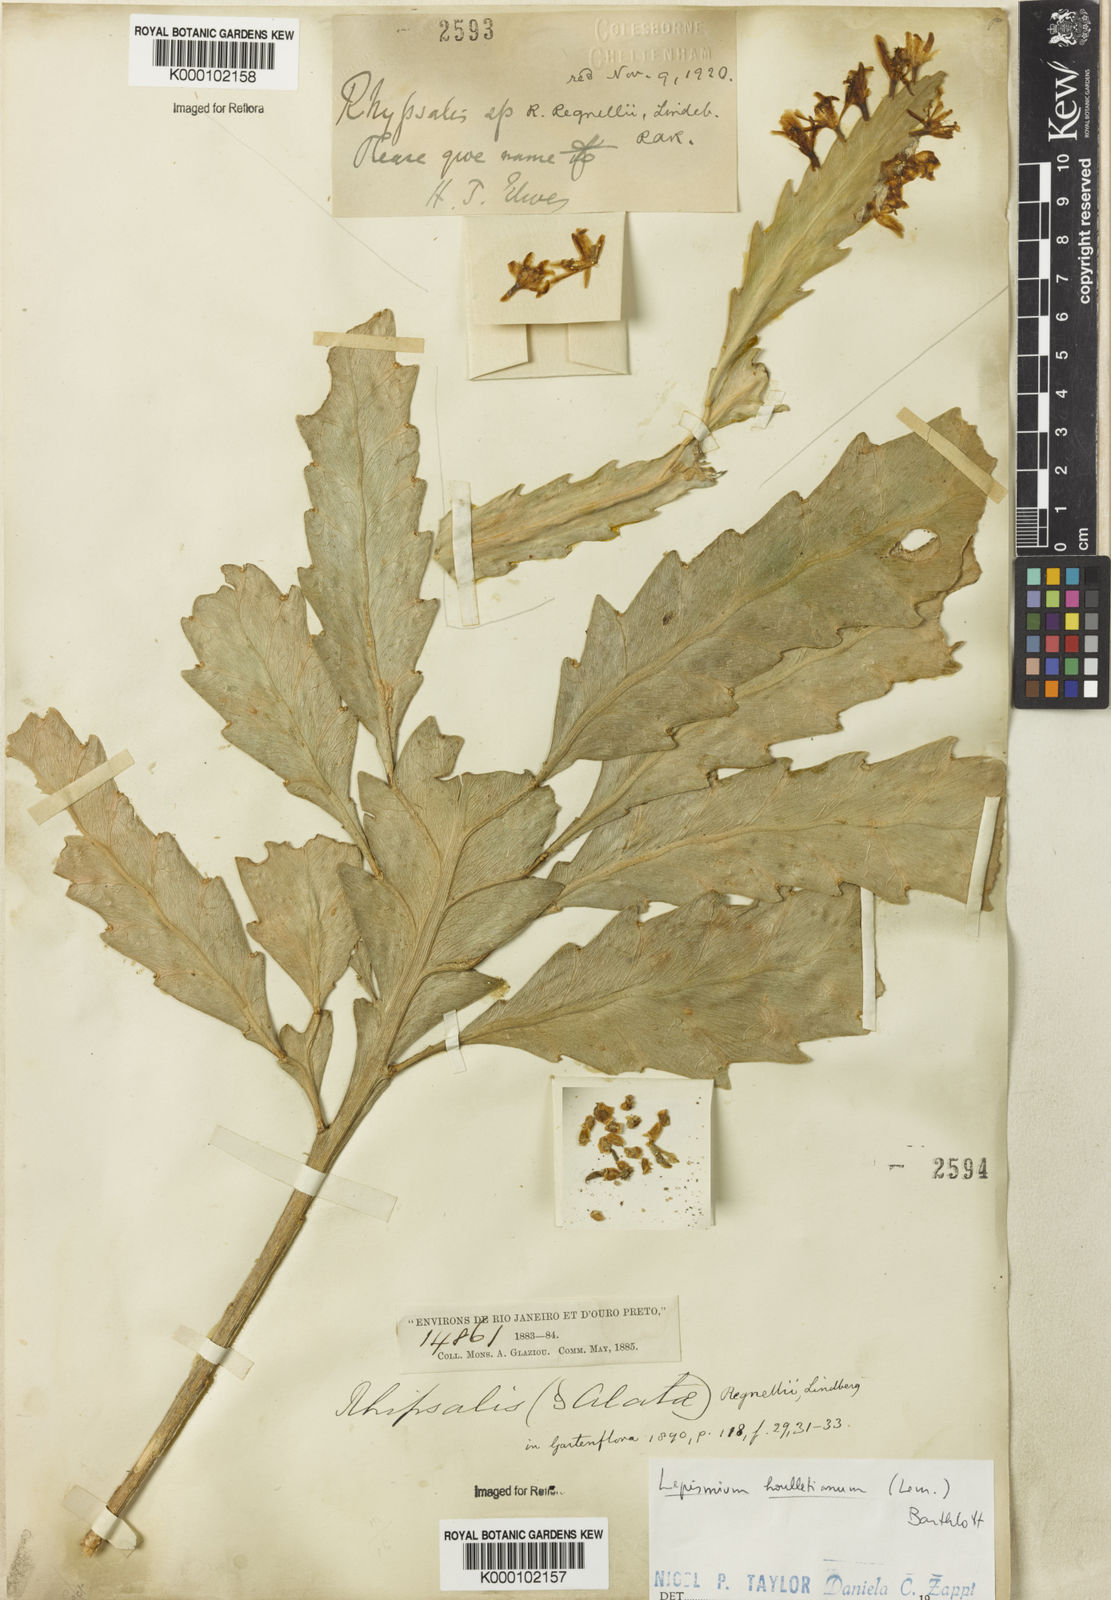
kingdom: Plantae
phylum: Tracheophyta
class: Magnoliopsida
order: Caryophyllales
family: Cactaceae
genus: Lepismium
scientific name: Lepismium houlletianum
